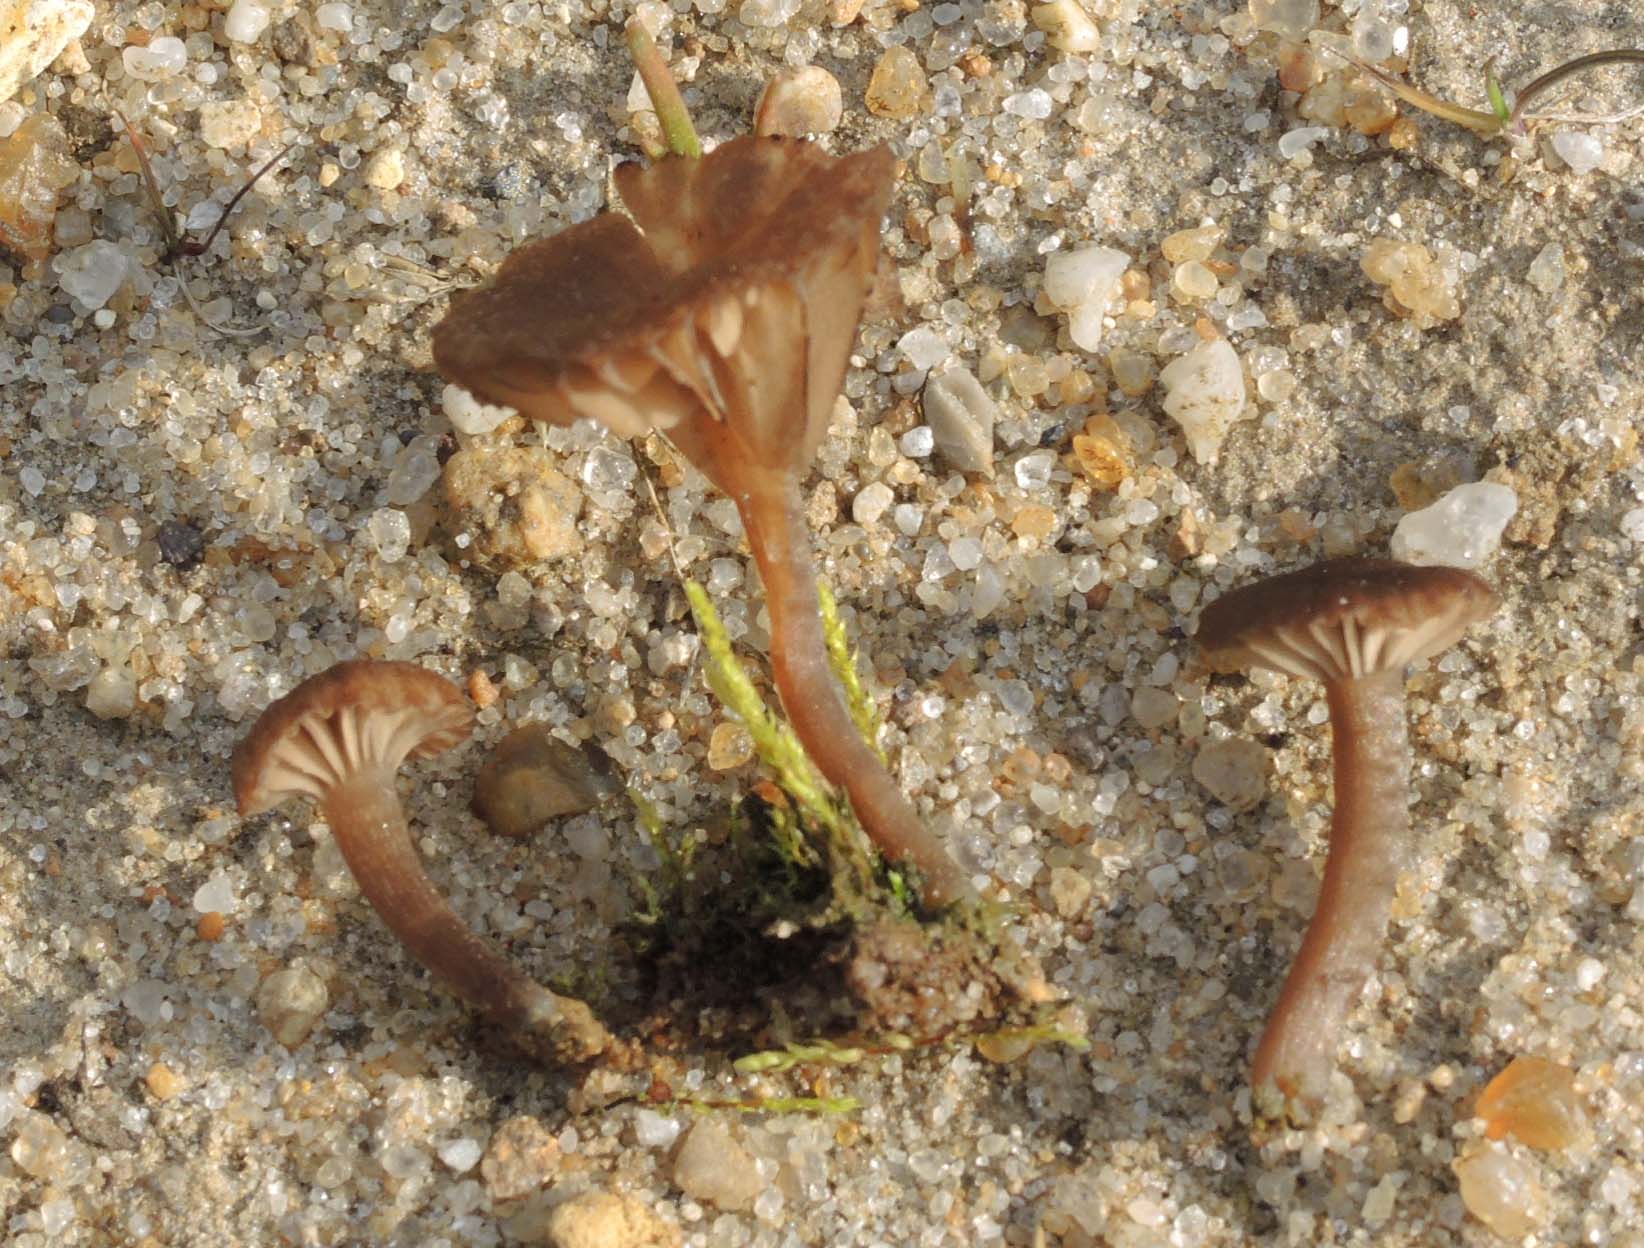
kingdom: Fungi
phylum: Basidiomycota
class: Agaricomycetes
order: Agaricales
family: Hygrophoraceae
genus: Arrhenia
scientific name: Arrhenia obscurata
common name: hede-fontænehat
